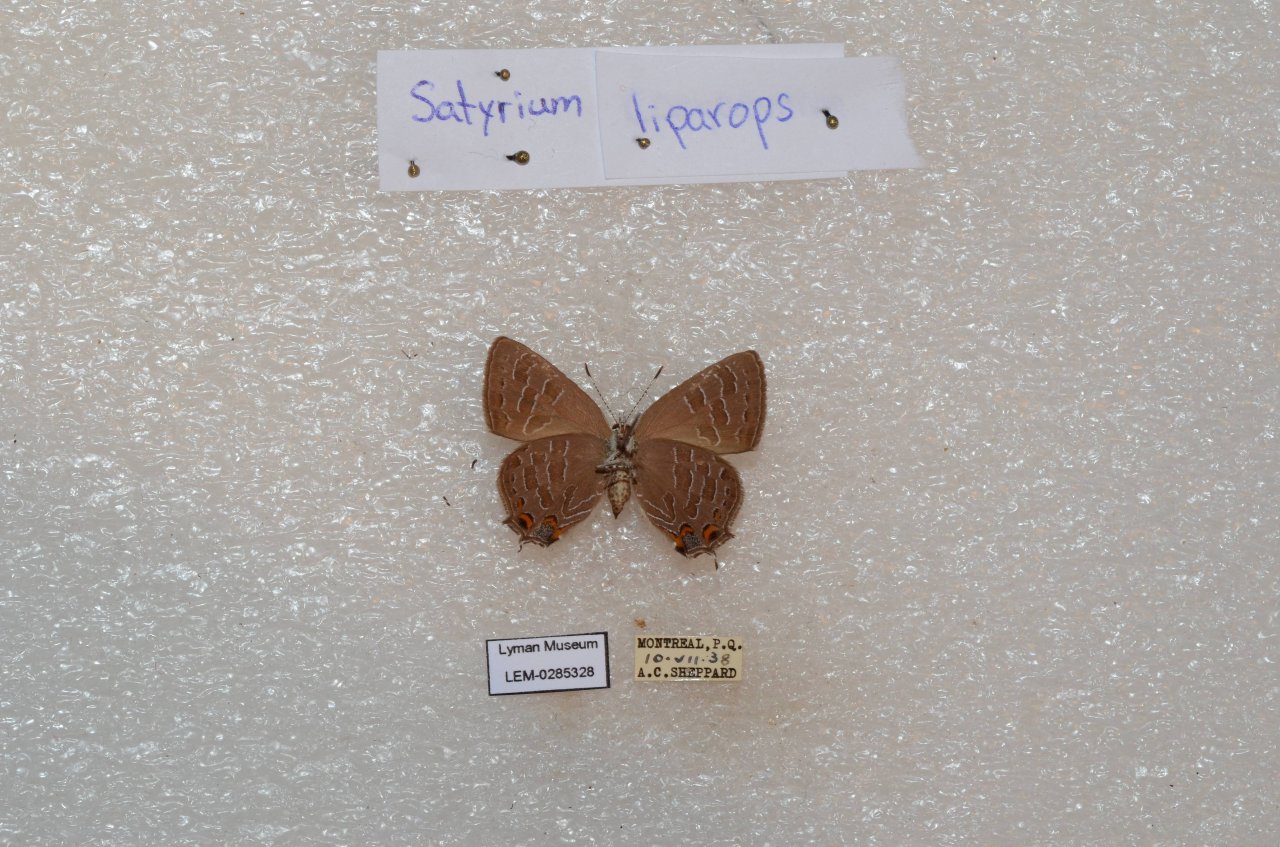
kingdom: Animalia
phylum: Arthropoda
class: Insecta
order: Lepidoptera
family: Lycaenidae
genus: Satyrium
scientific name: Satyrium liparops
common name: Striped Hairstreak
